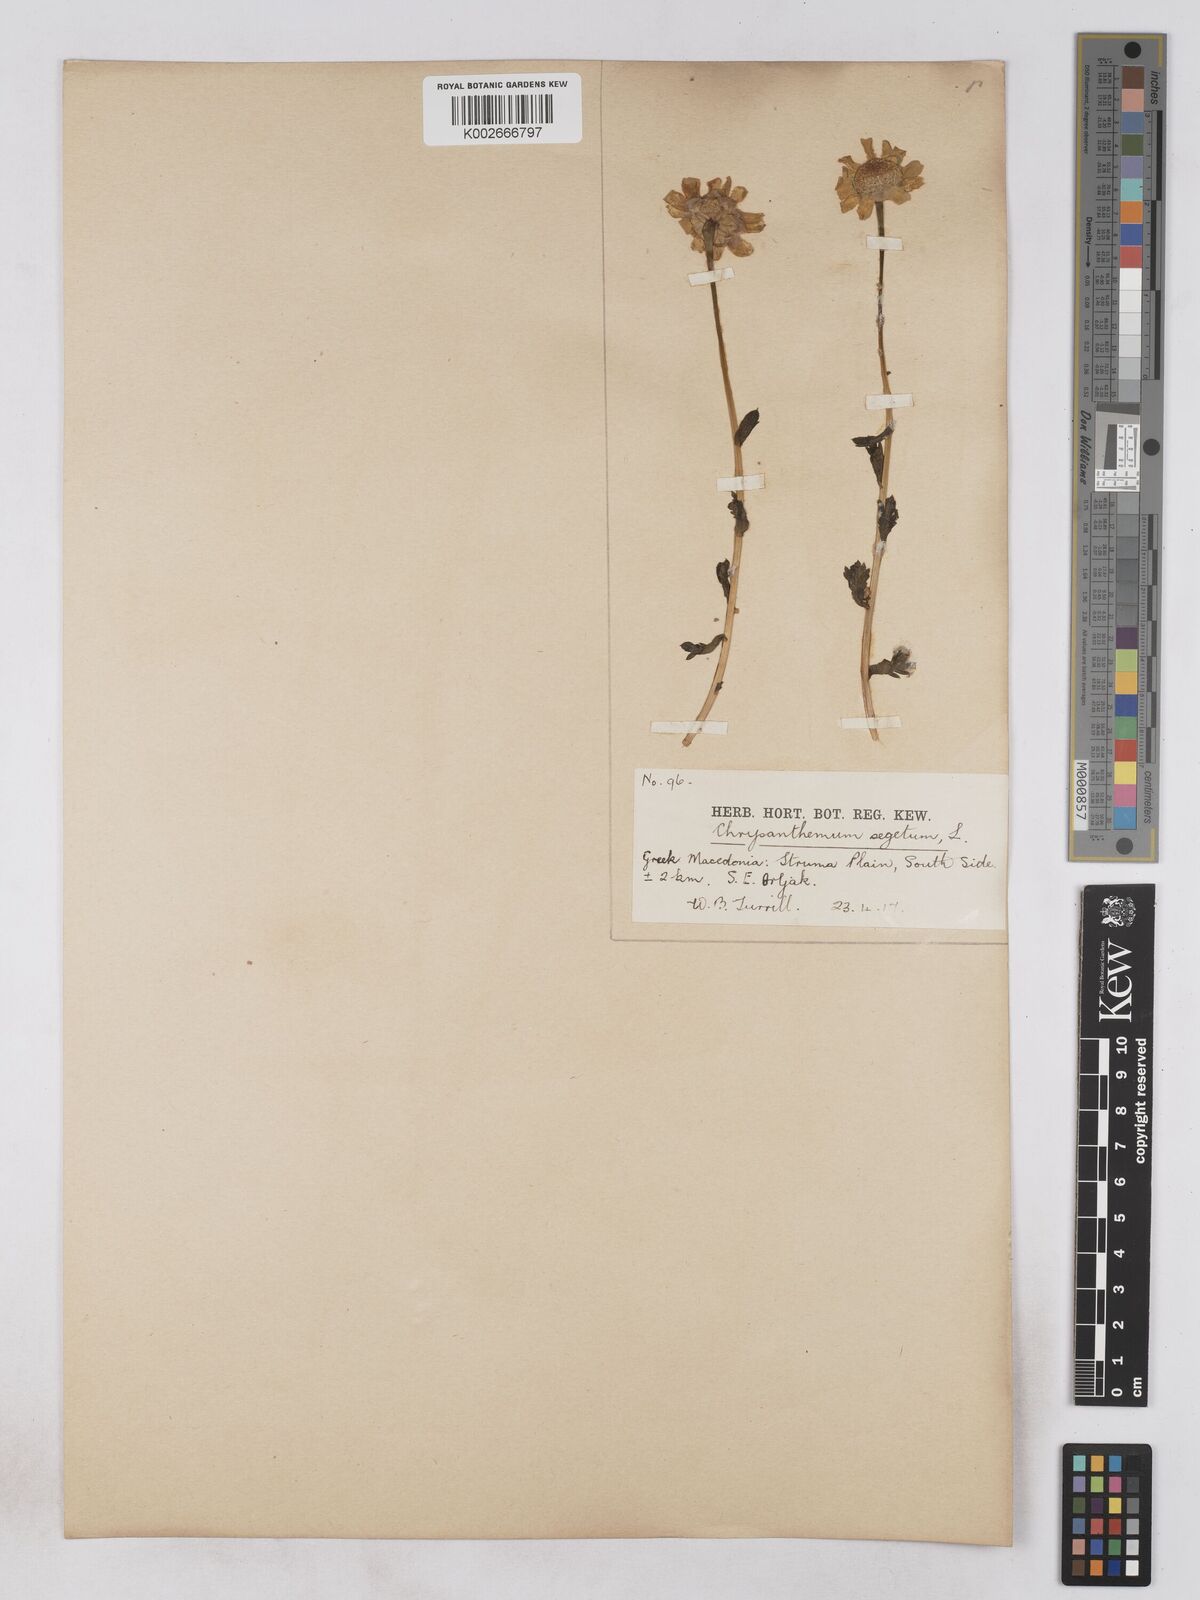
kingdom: Plantae
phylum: Tracheophyta
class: Magnoliopsida
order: Asterales
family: Asteraceae
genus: Glebionis
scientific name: Glebionis segetum
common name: Corndaisy
